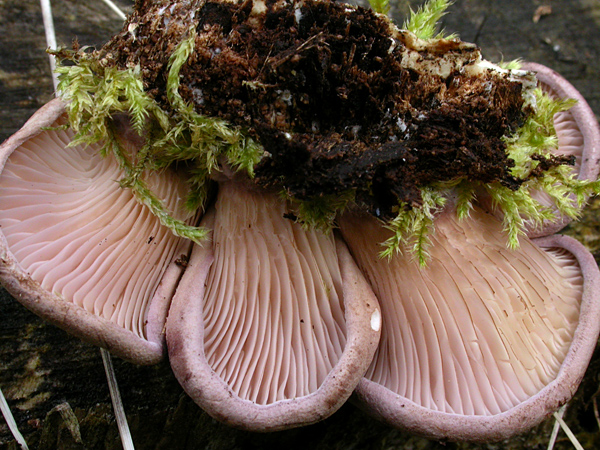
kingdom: Fungi
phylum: Basidiomycota
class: Agaricomycetes
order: Polyporales
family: Panaceae
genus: Panus
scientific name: Panus conchatus
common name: filtstokket læderhat
